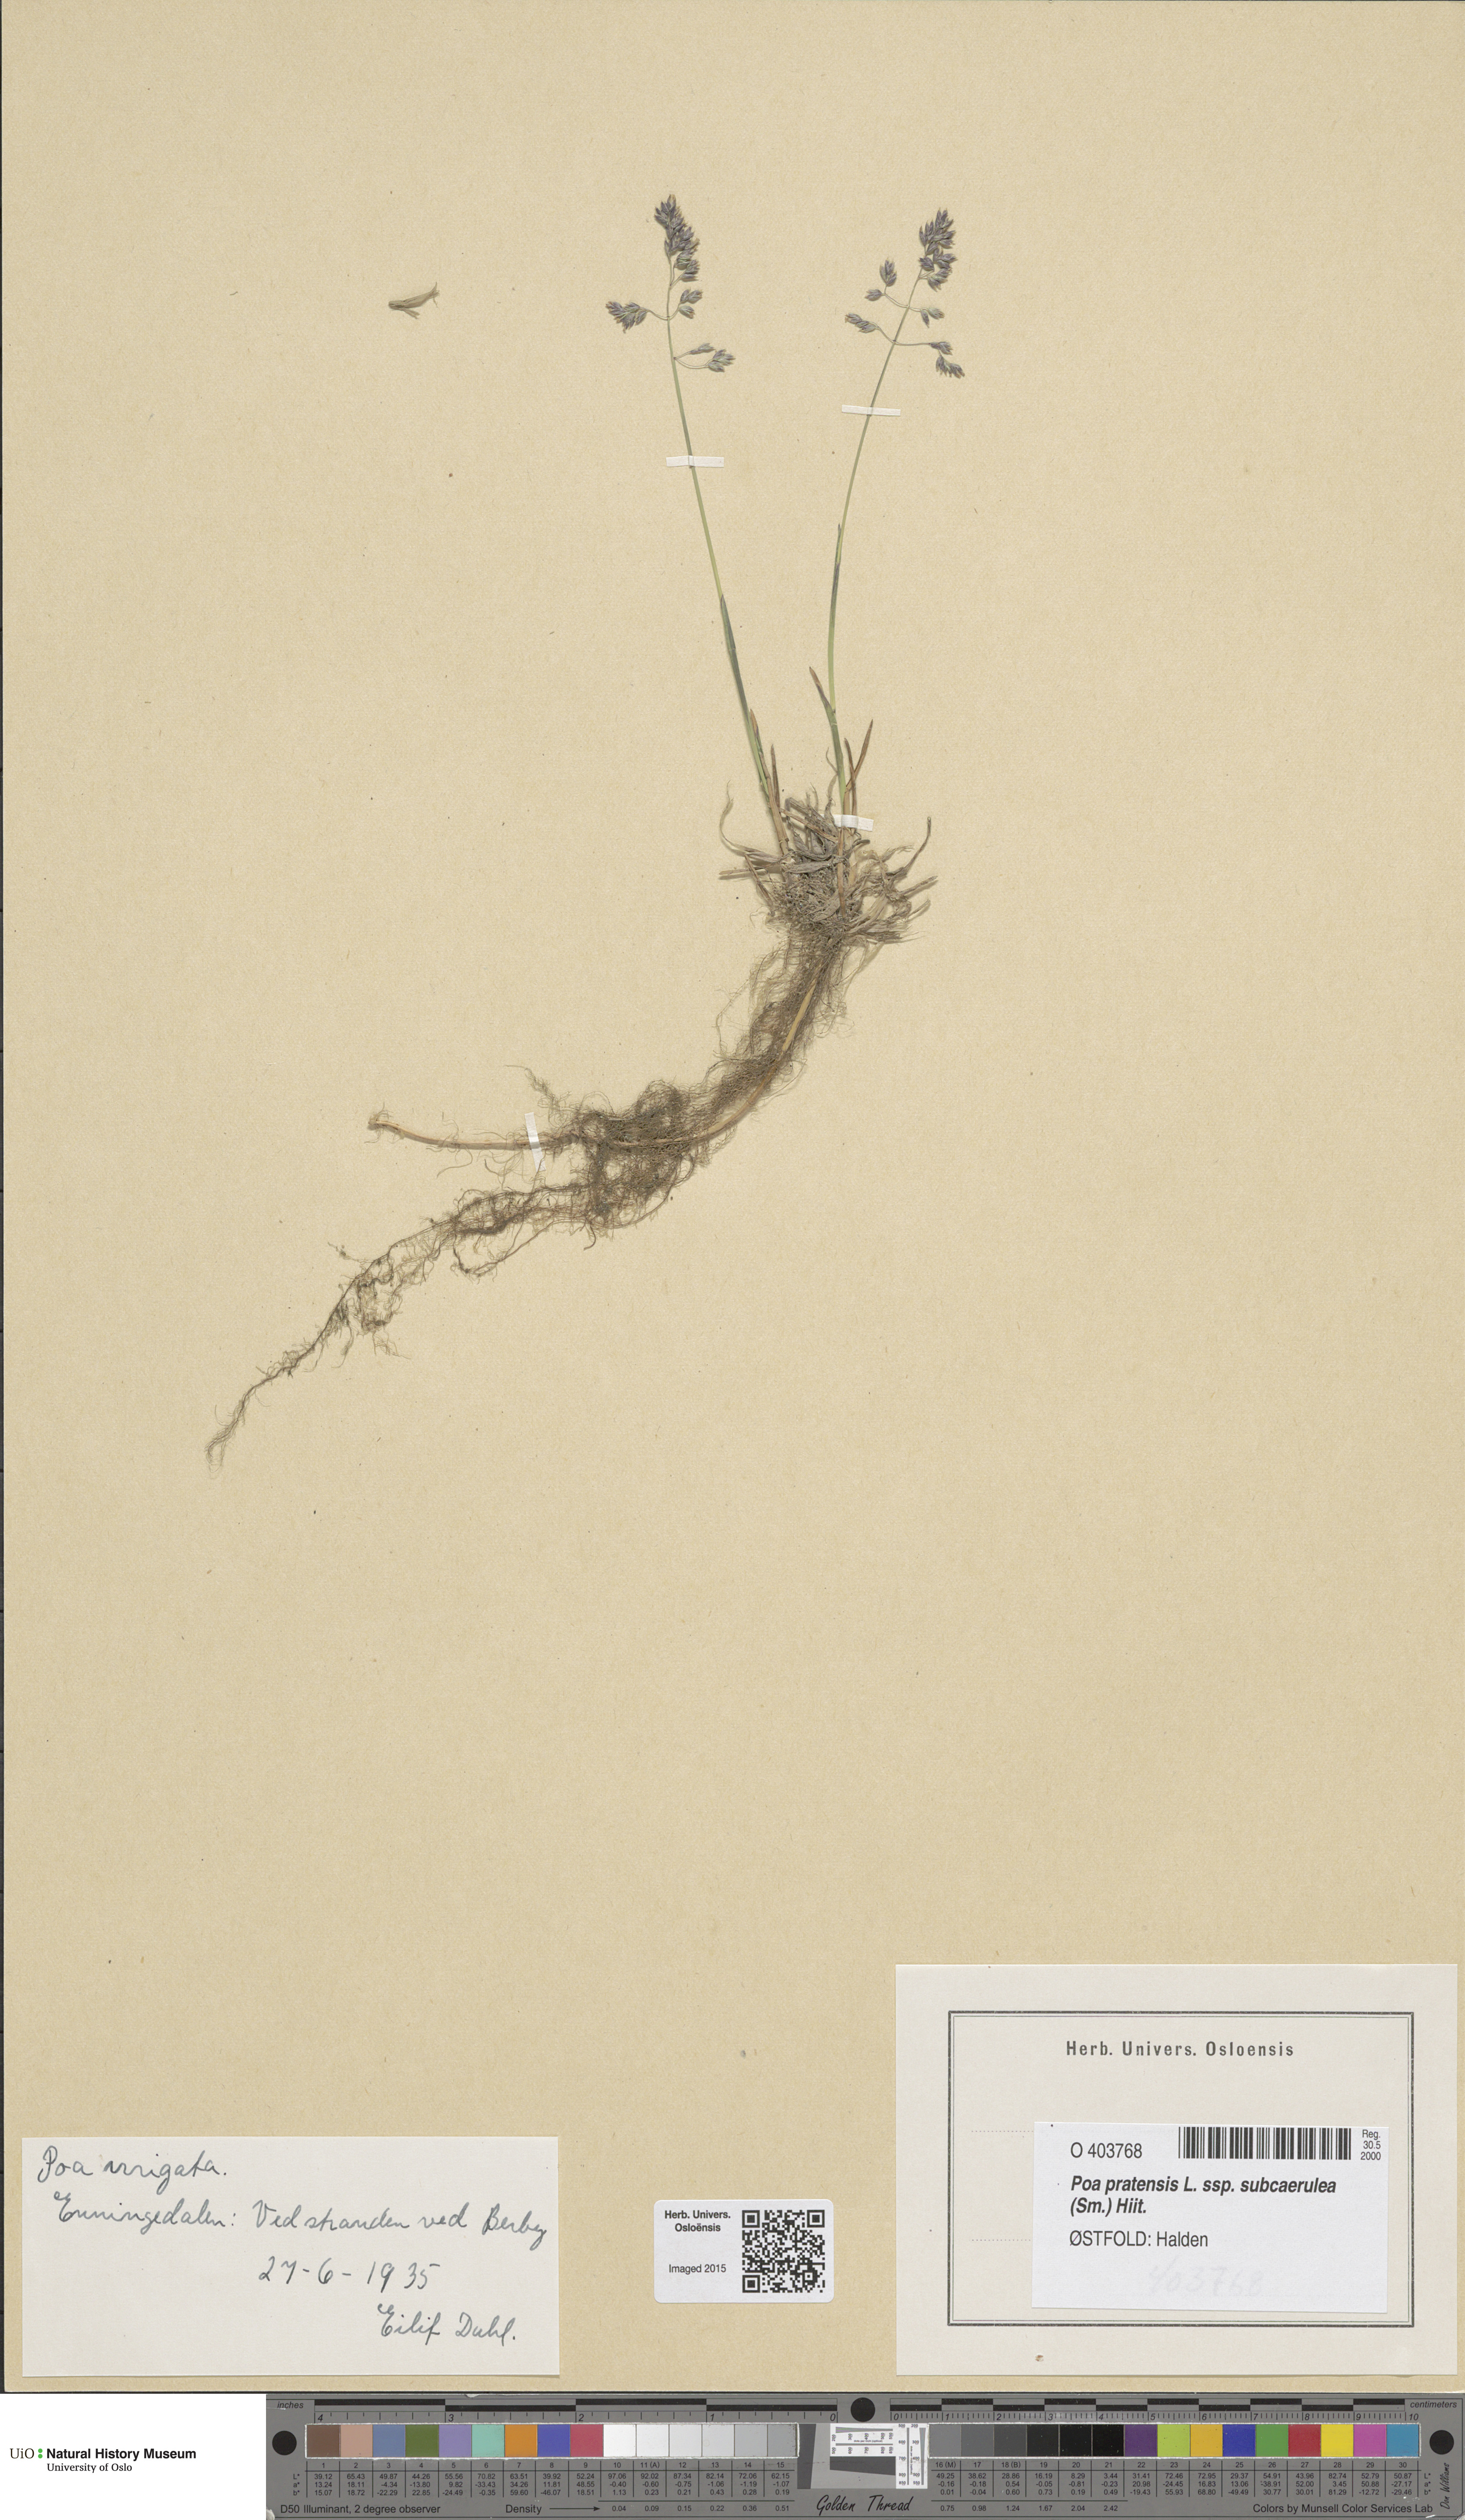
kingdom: Plantae
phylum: Tracheophyta
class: Liliopsida
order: Poales
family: Poaceae
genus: Poa
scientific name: Poa humilis
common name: Spreading meadow-grass
